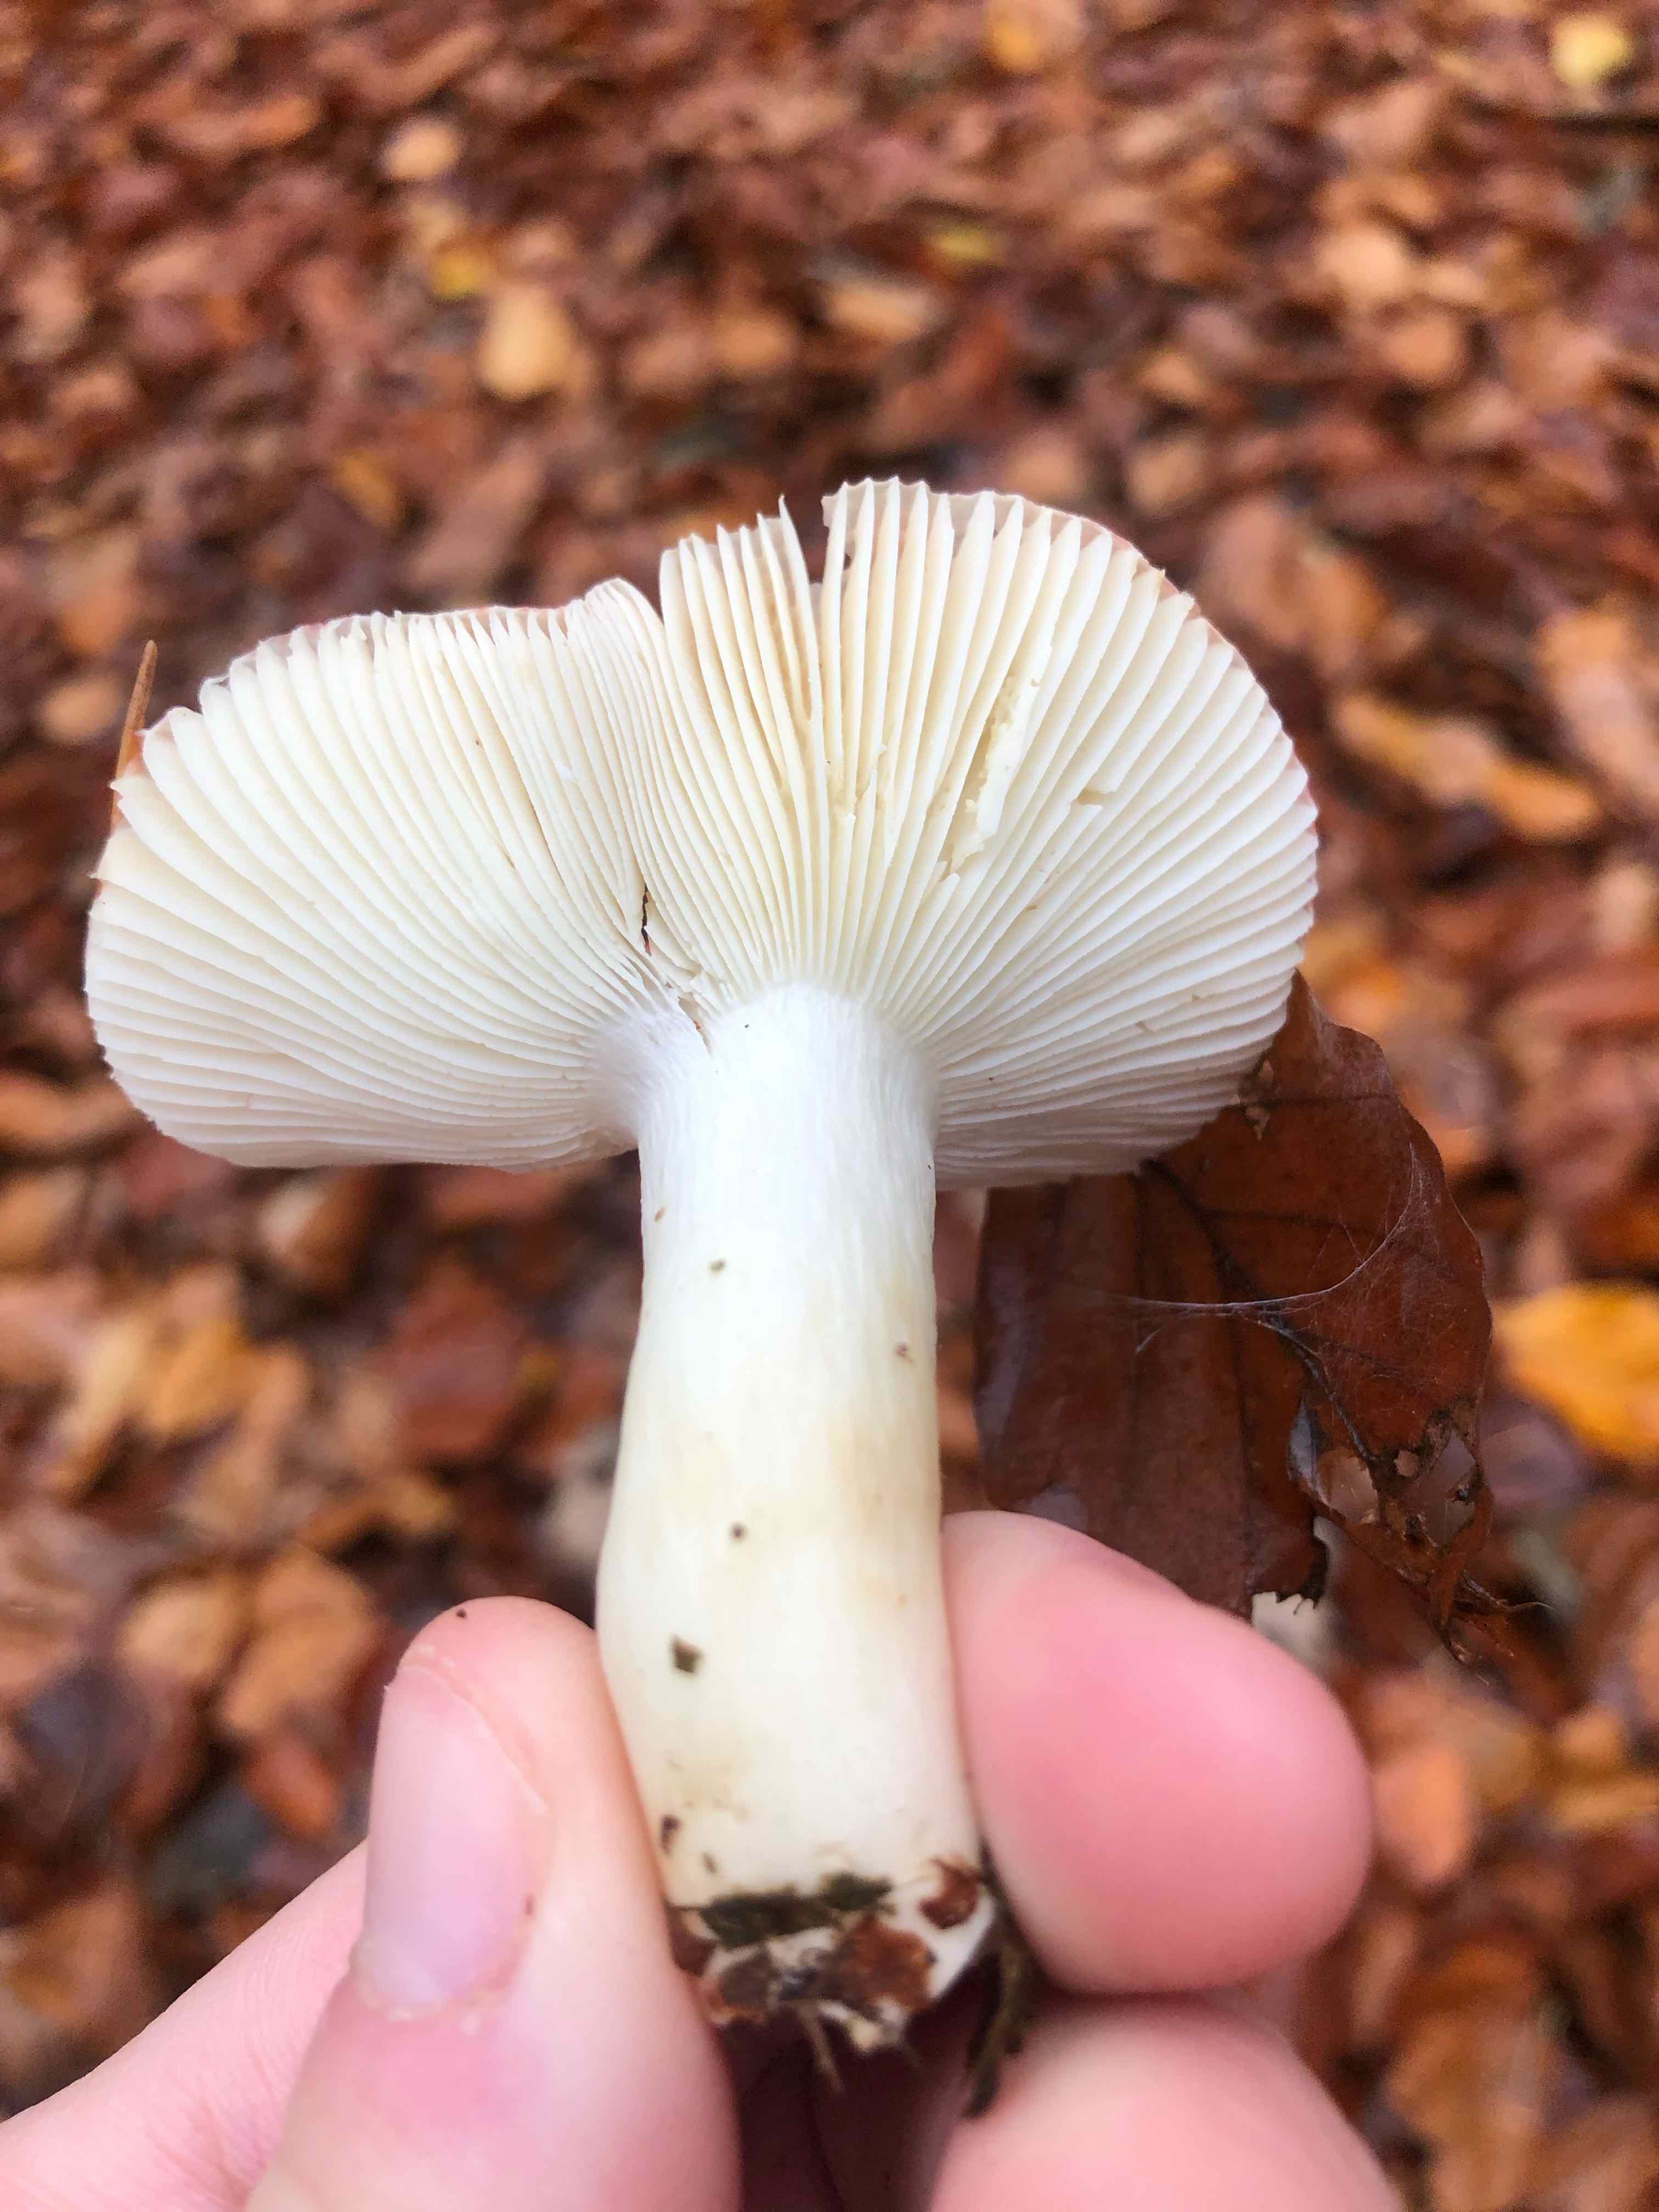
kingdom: Fungi
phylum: Basidiomycota
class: Agaricomycetes
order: Russulales
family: Russulaceae
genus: Russula
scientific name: Russula
